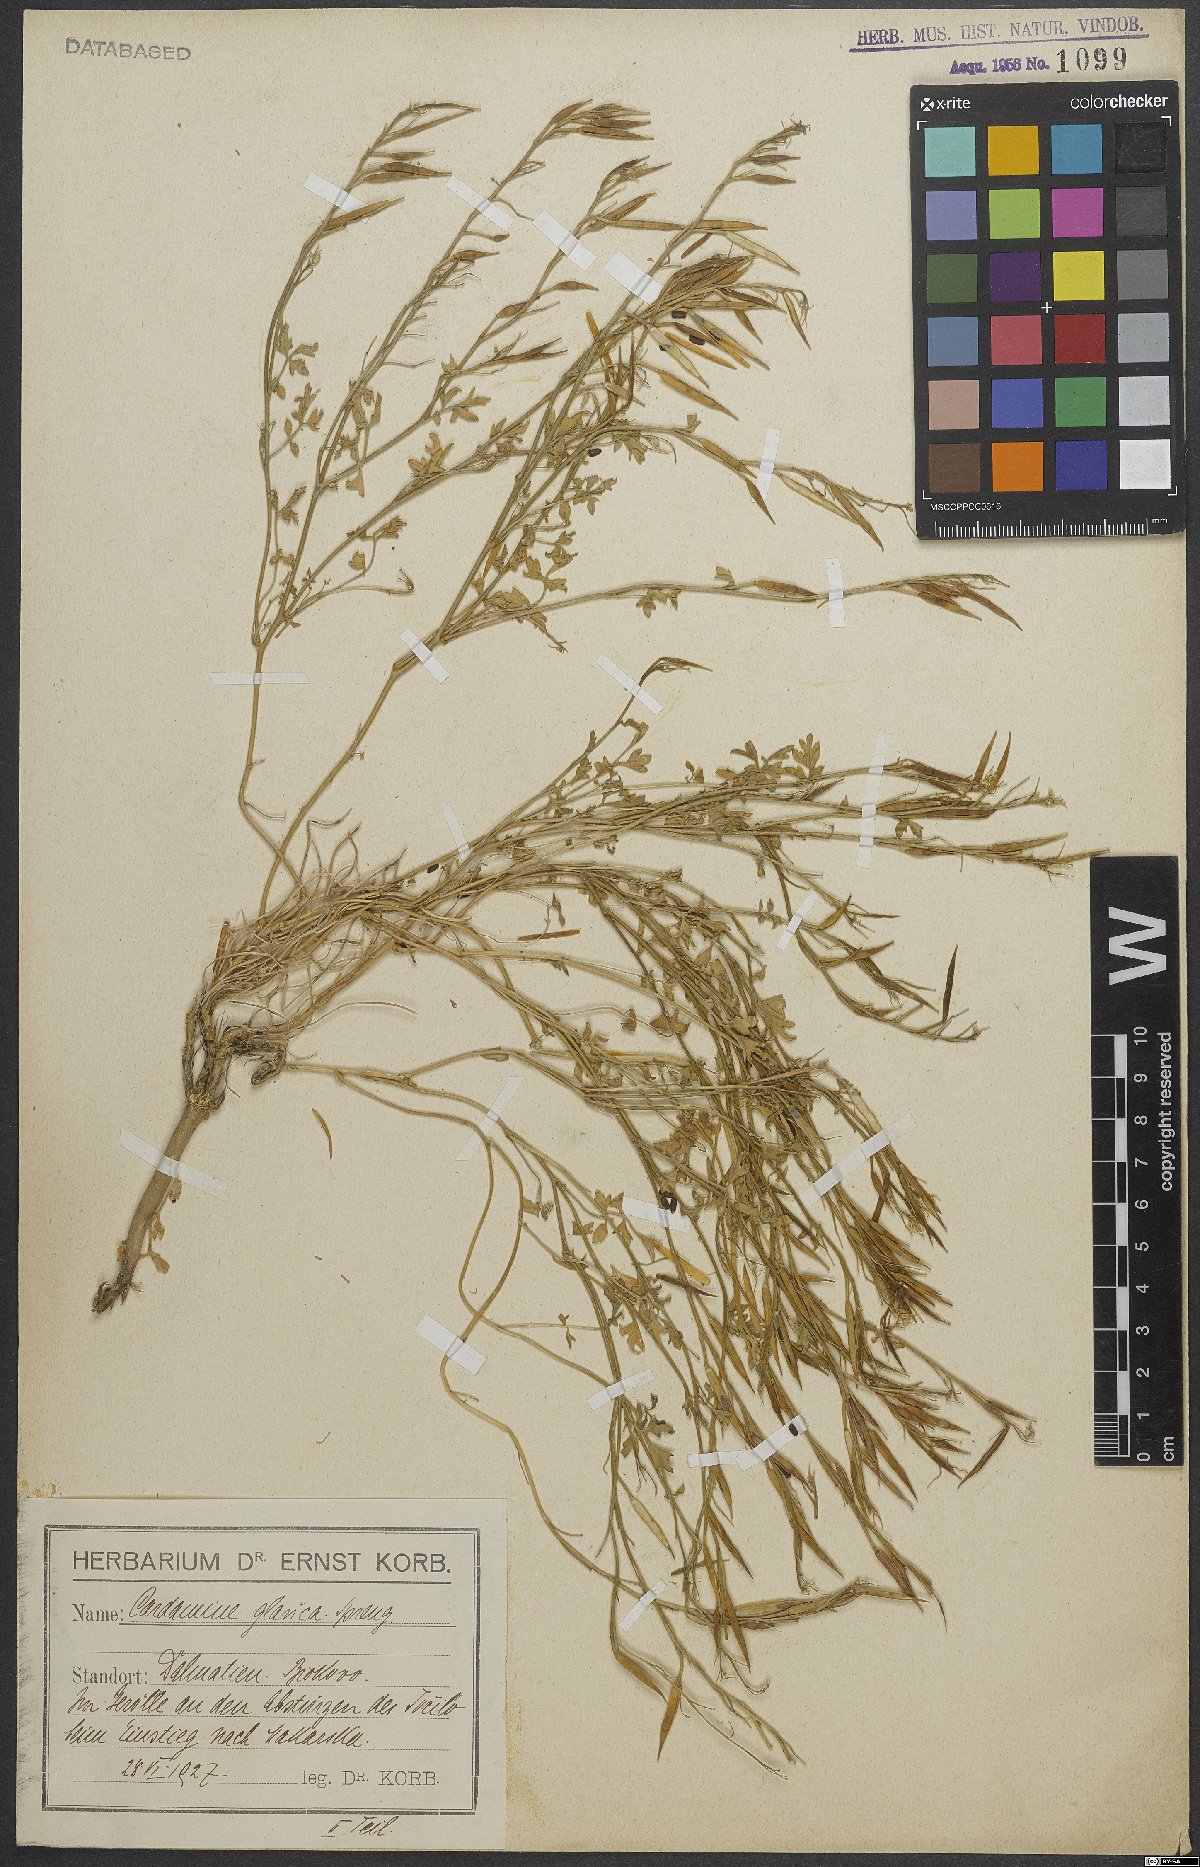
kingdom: Plantae
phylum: Tracheophyta
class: Magnoliopsida
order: Brassicales
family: Brassicaceae
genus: Cardamine
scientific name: Cardamine glauca
